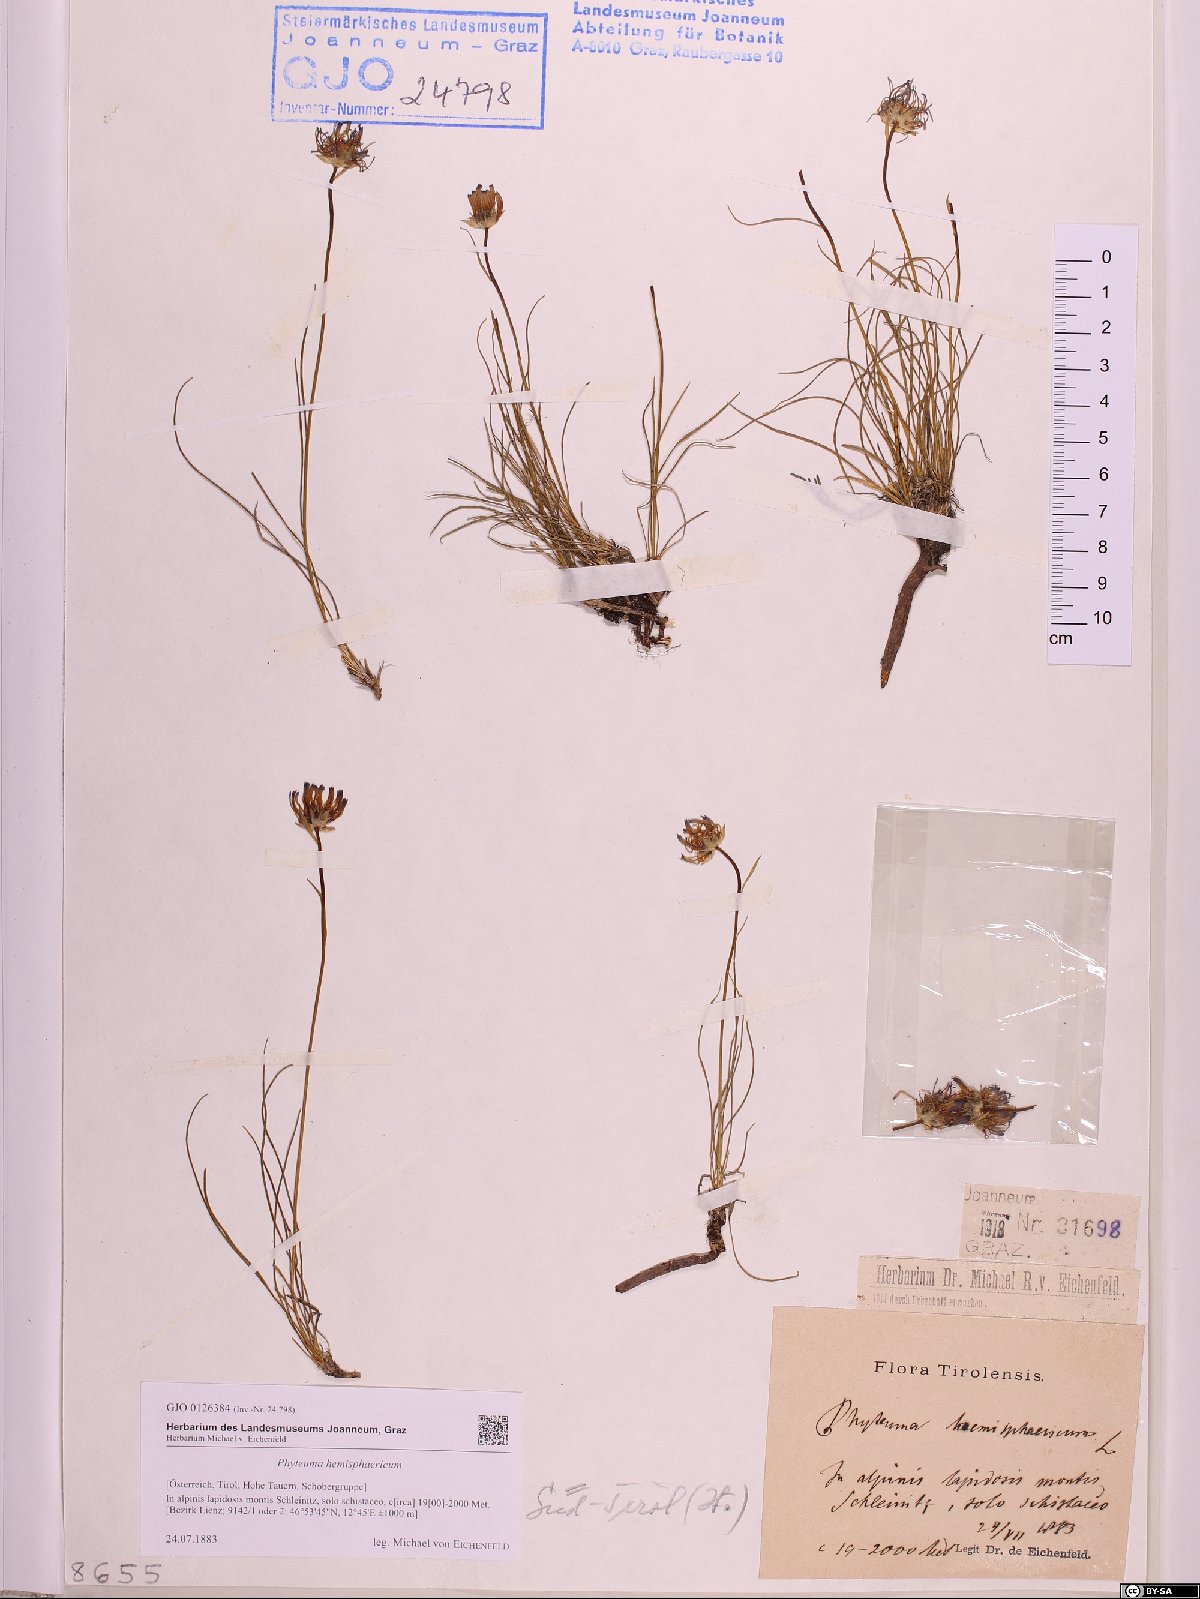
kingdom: Plantae
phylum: Tracheophyta
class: Magnoliopsida
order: Asterales
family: Campanulaceae
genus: Phyteuma
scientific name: Phyteuma hemisphaericum
